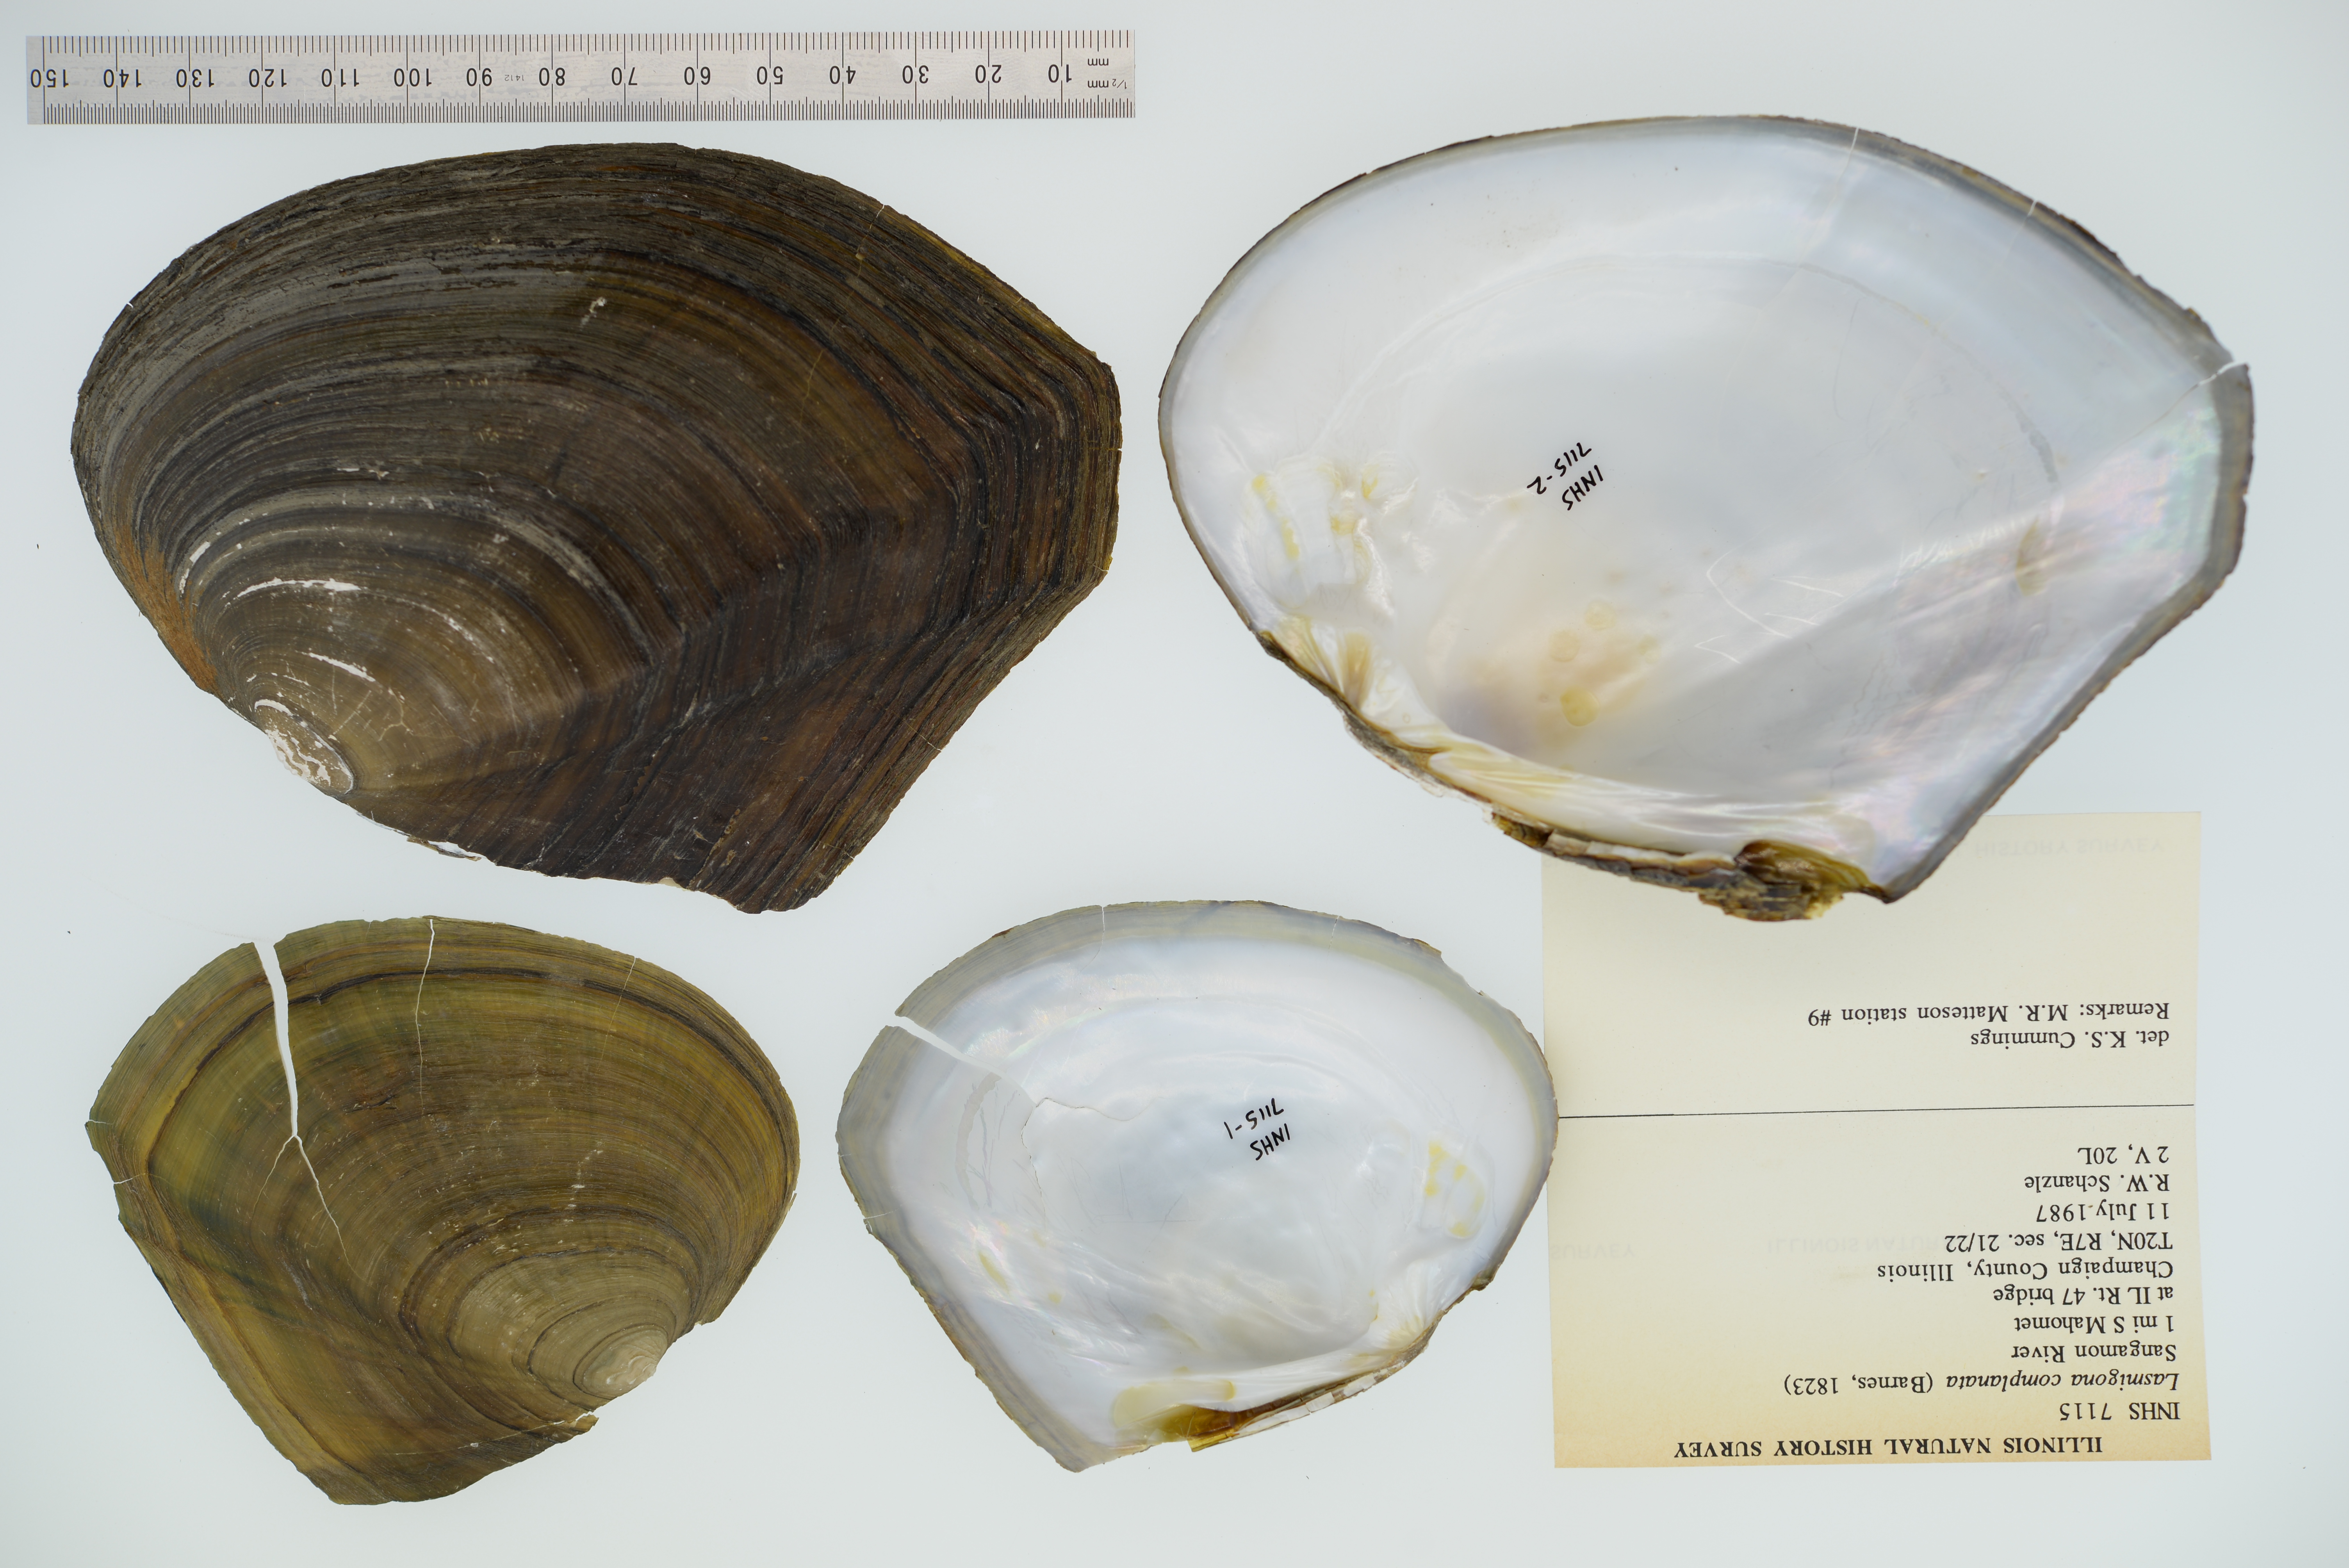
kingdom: Animalia
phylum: Mollusca
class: Bivalvia
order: Unionida
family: Unionidae
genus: Lasmigona
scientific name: Lasmigona complanata
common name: White heelsplitter
